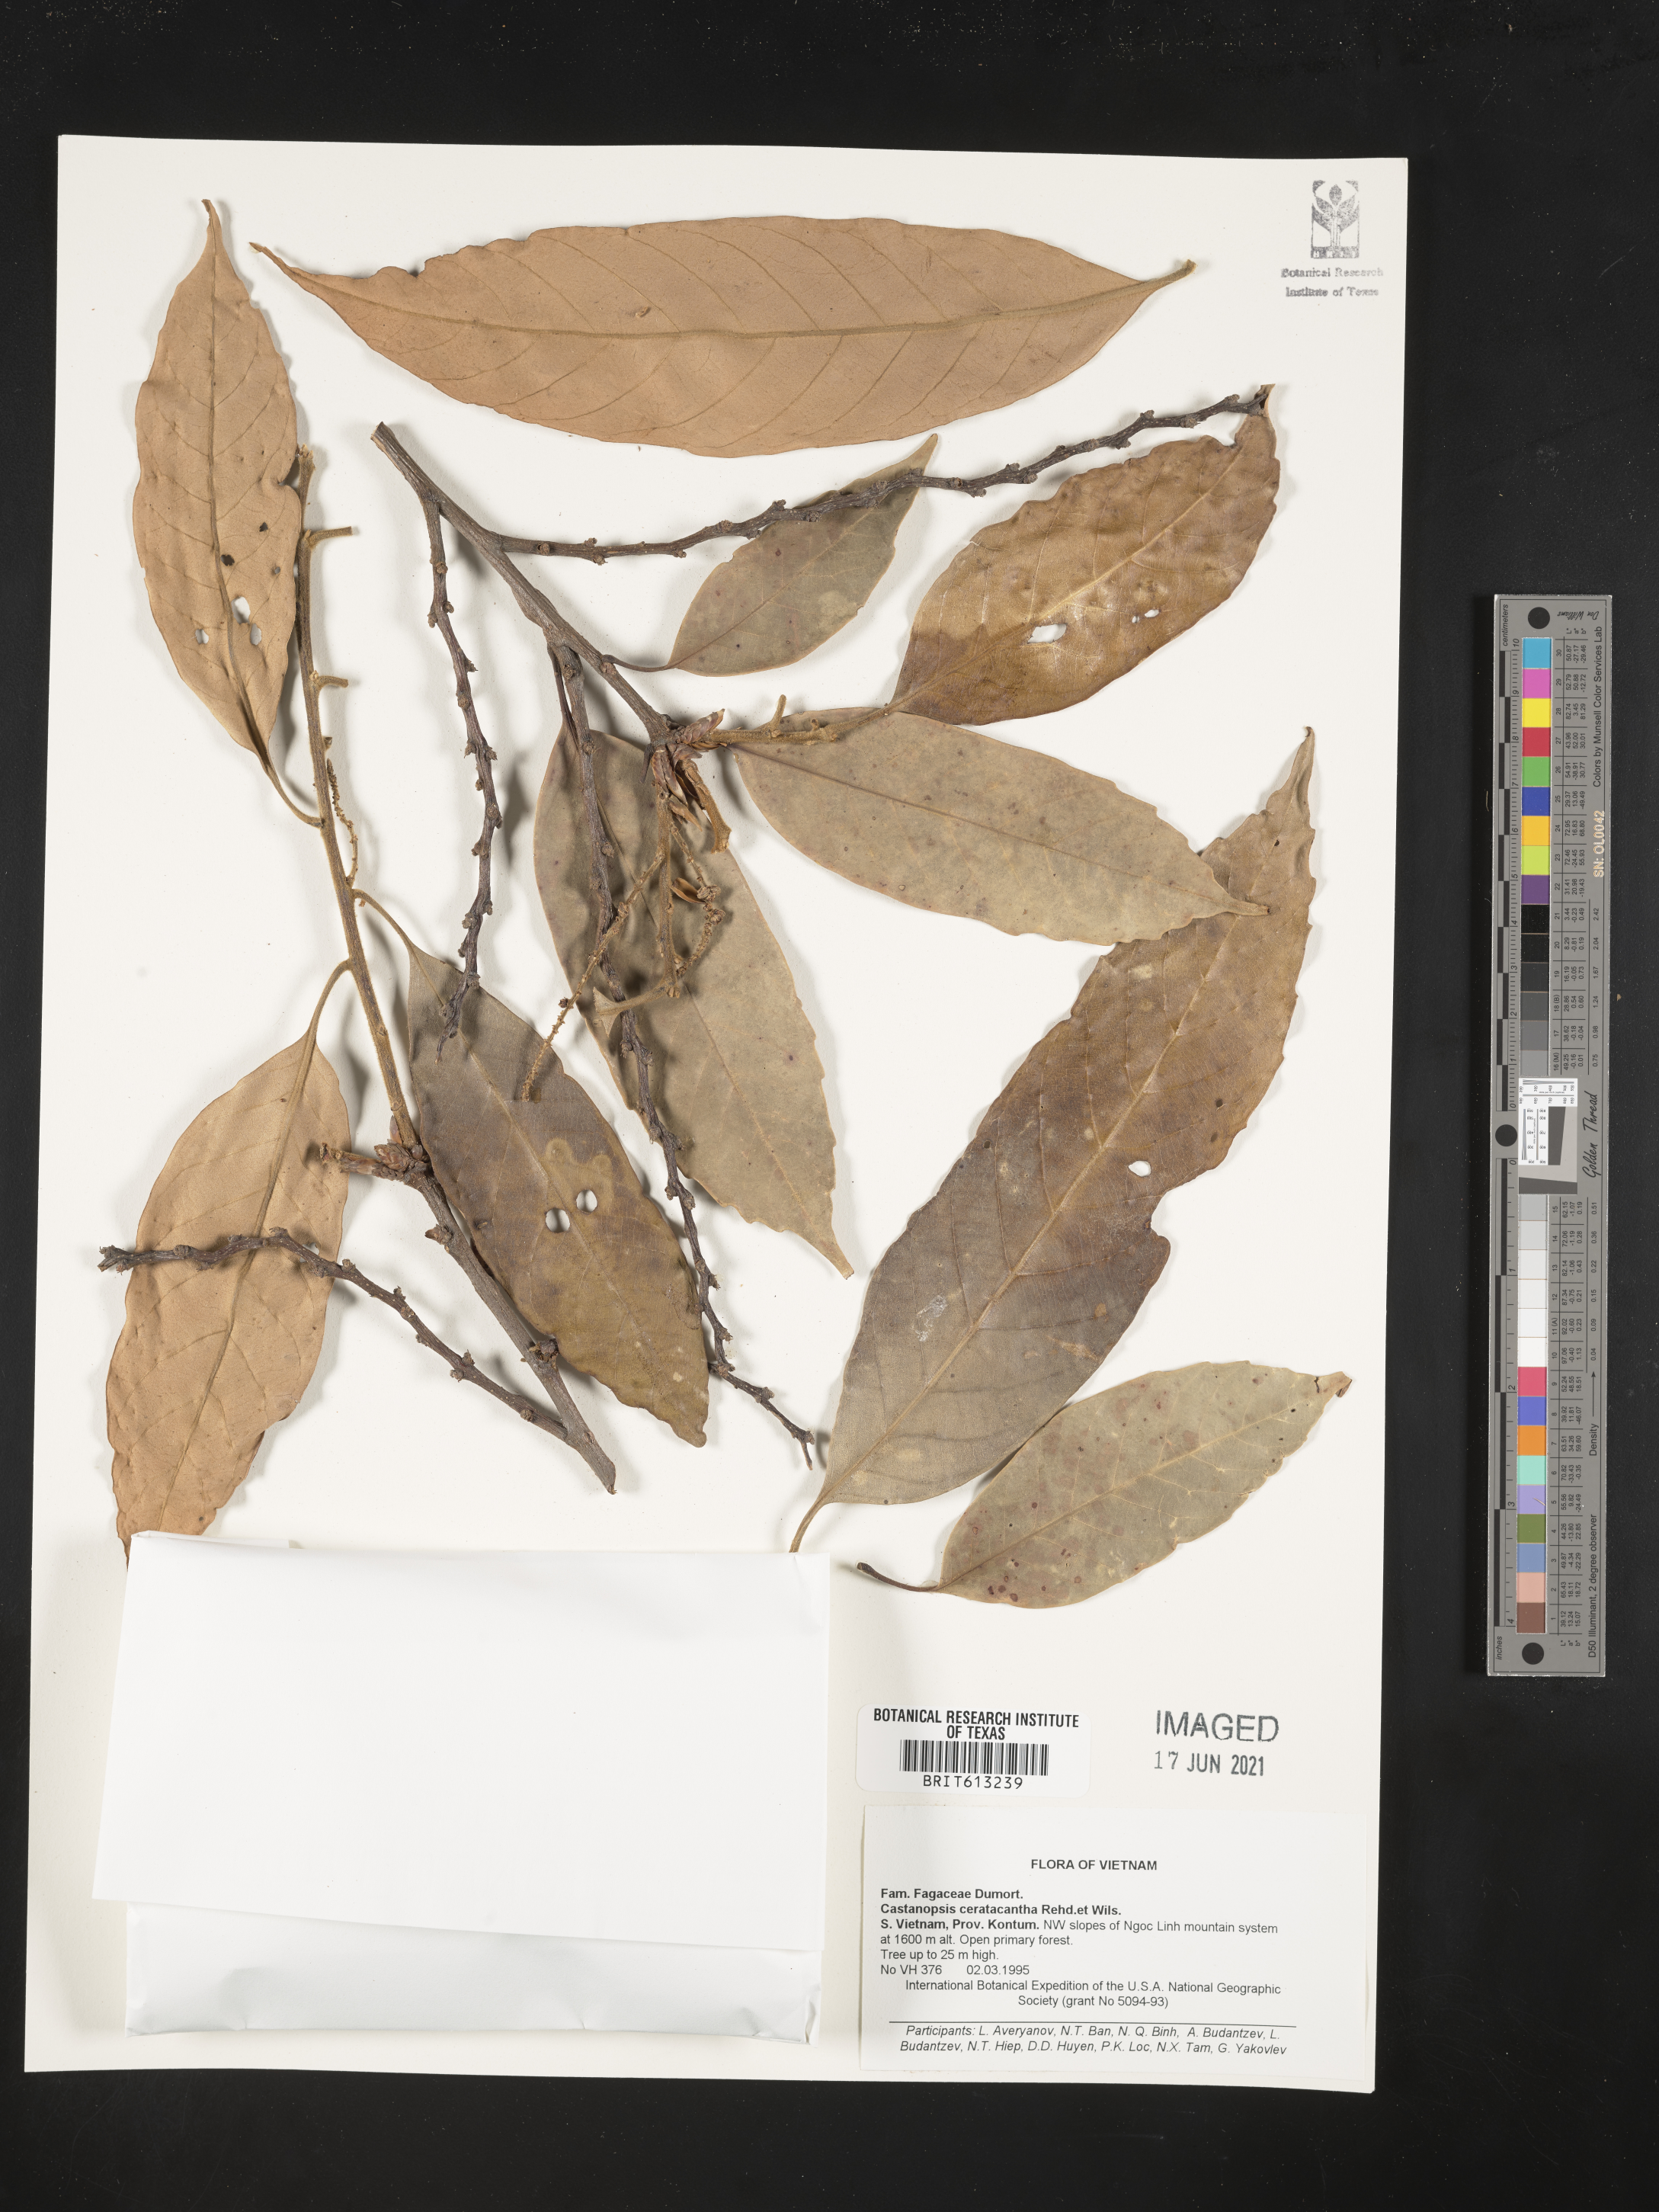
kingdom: Plantae
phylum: Tracheophyta
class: Magnoliopsida
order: Fagales
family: Fagaceae
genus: Castanopsis
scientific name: Castanopsis ceratacantha
